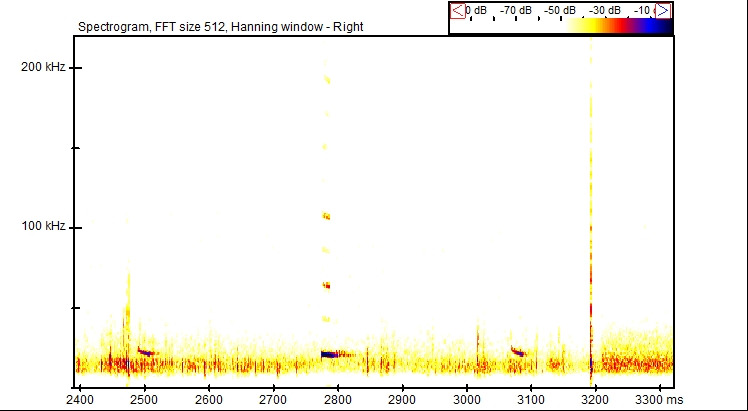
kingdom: Animalia
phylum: Chordata
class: Mammalia
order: Chiroptera
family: Vespertilionidae
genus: Nyctalus
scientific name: Nyctalus noctula
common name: Brunflagermus
